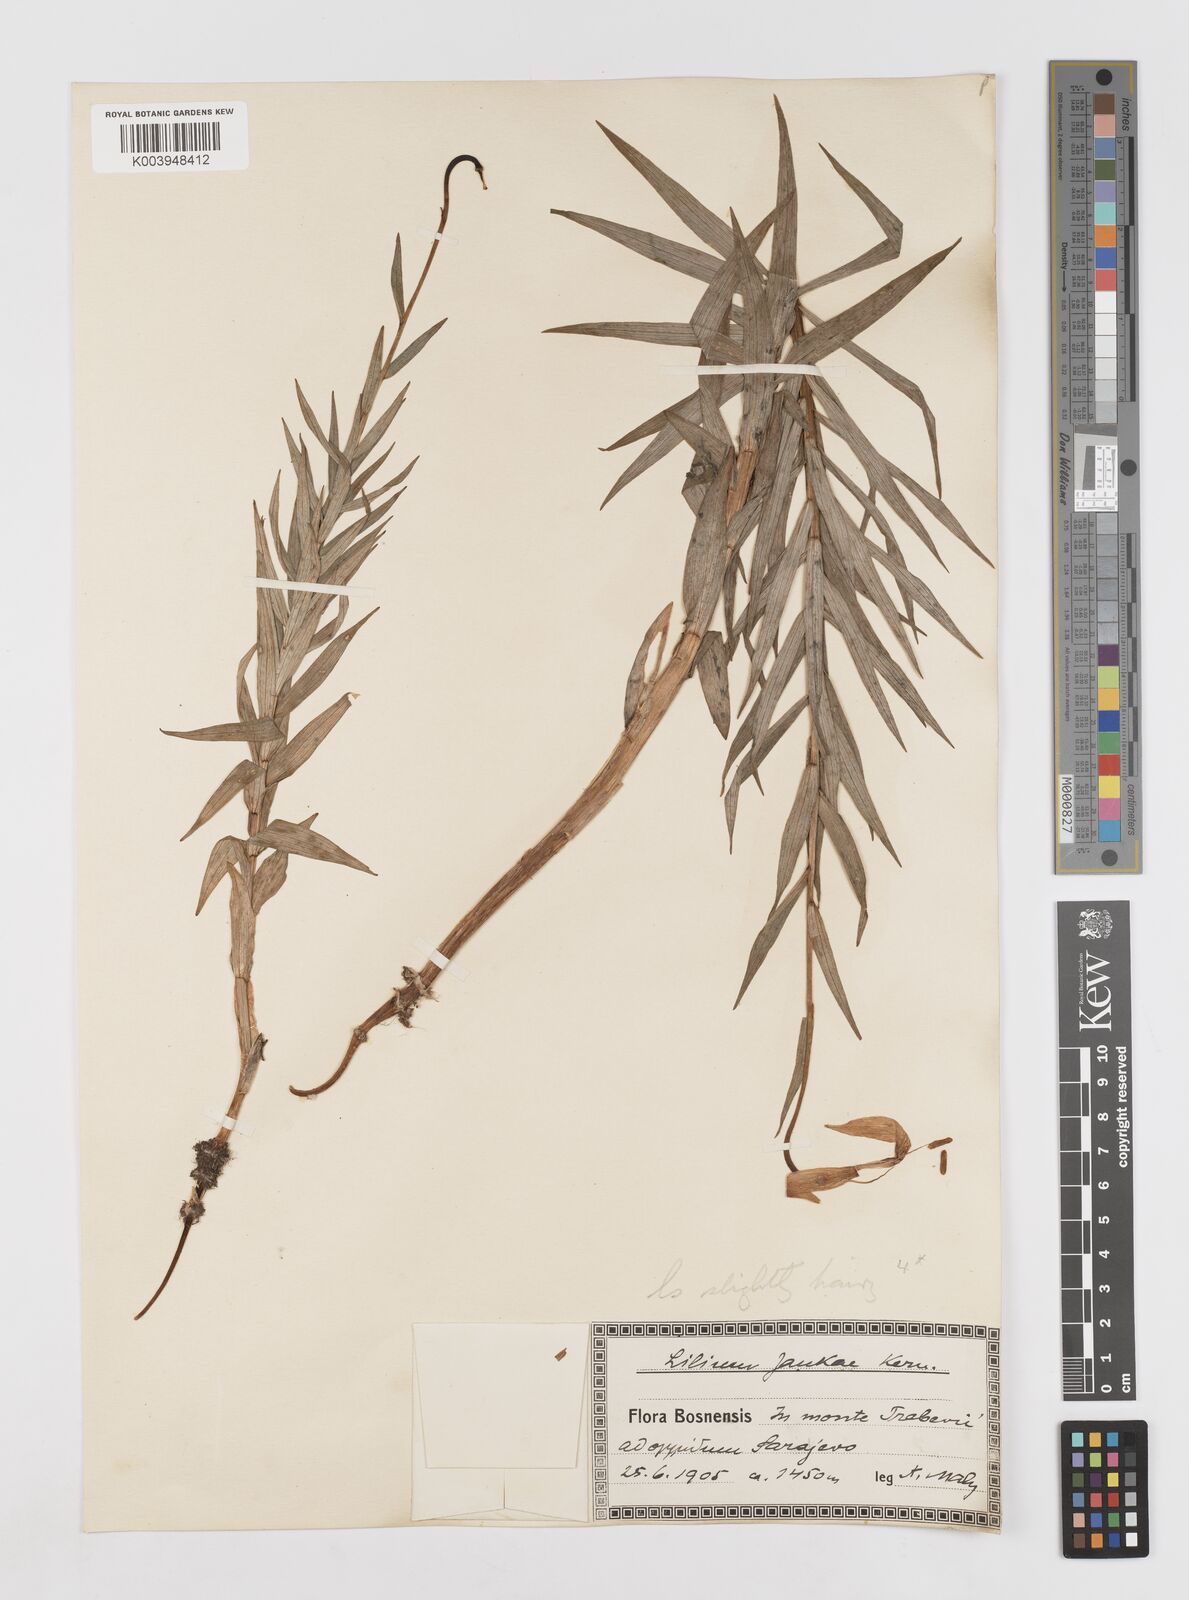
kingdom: Plantae
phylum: Tracheophyta
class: Liliopsida
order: Liliales
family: Liliaceae
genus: Lilium
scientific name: Lilium jankae
